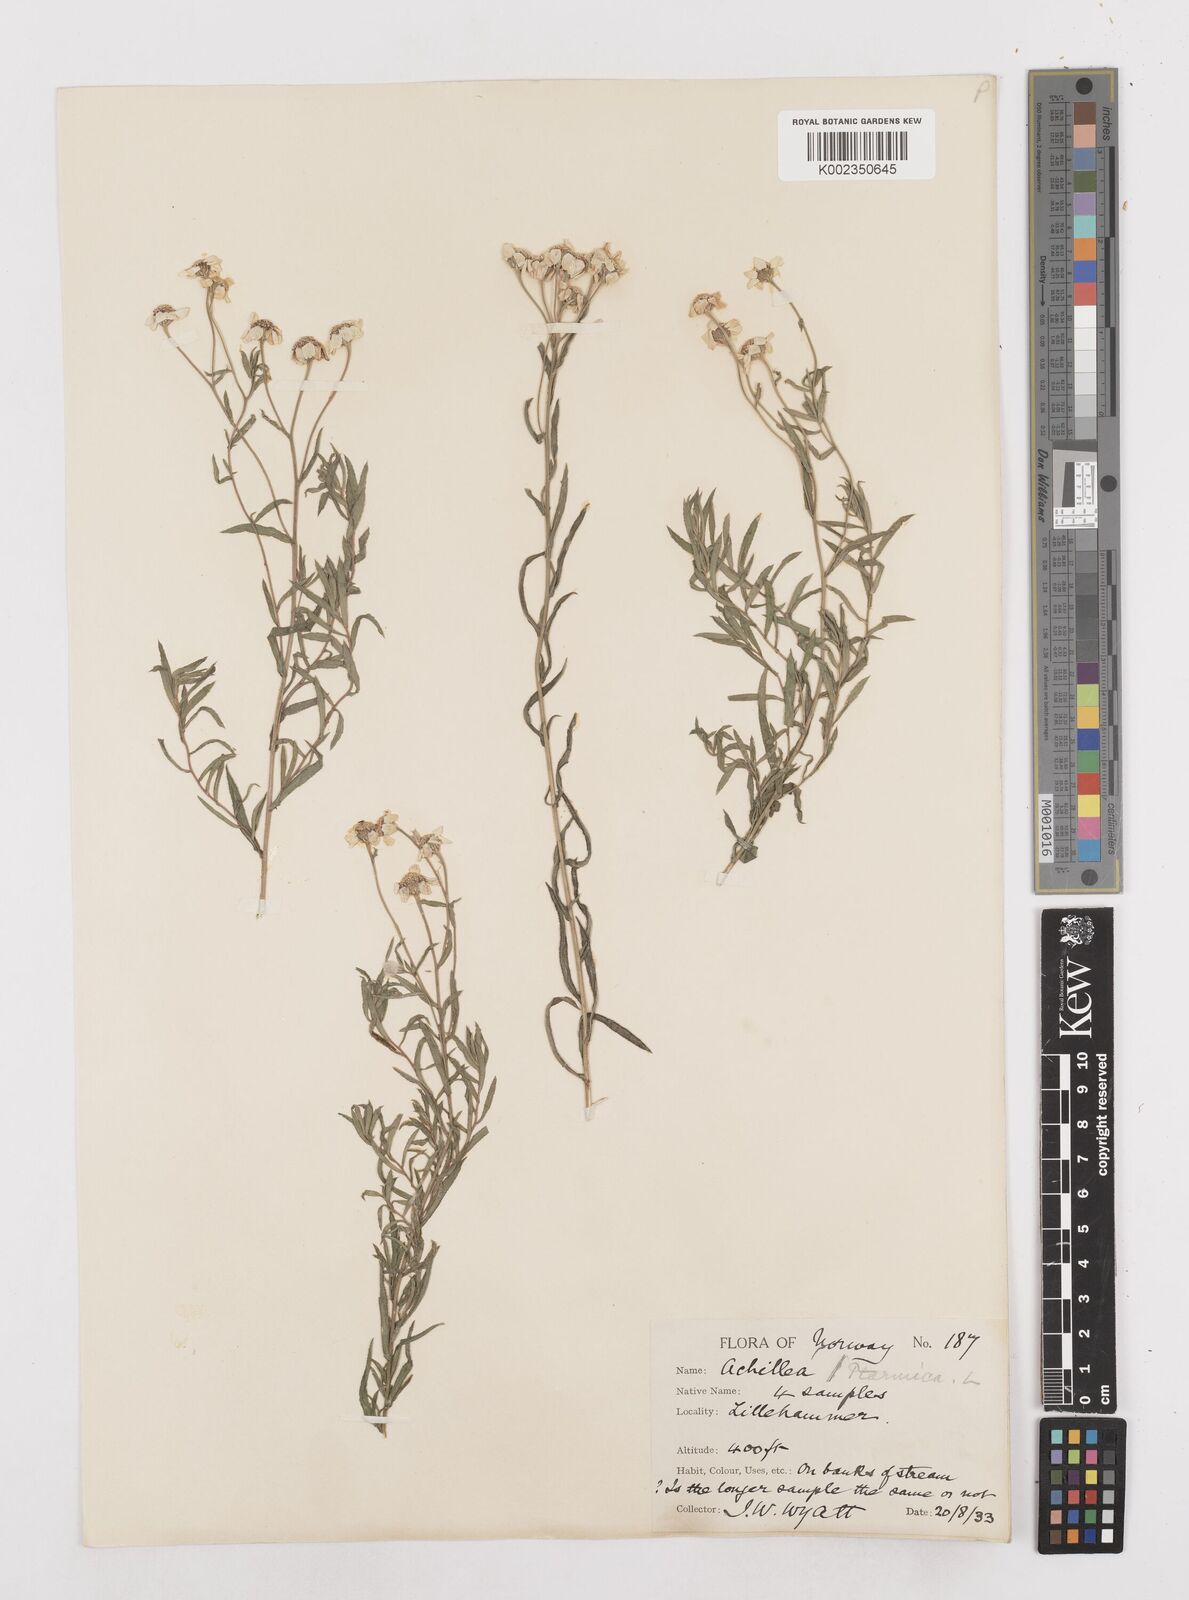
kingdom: Plantae
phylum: Tracheophyta
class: Magnoliopsida
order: Asterales
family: Asteraceae
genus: Achillea
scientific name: Achillea ptarmica
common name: Sneezeweed
